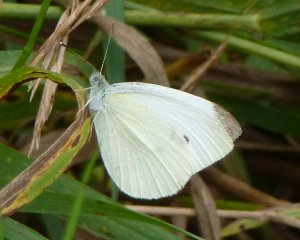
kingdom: Animalia
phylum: Arthropoda
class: Insecta
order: Lepidoptera
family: Pieridae
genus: Pieris
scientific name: Pieris rapae
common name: Cabbage White
